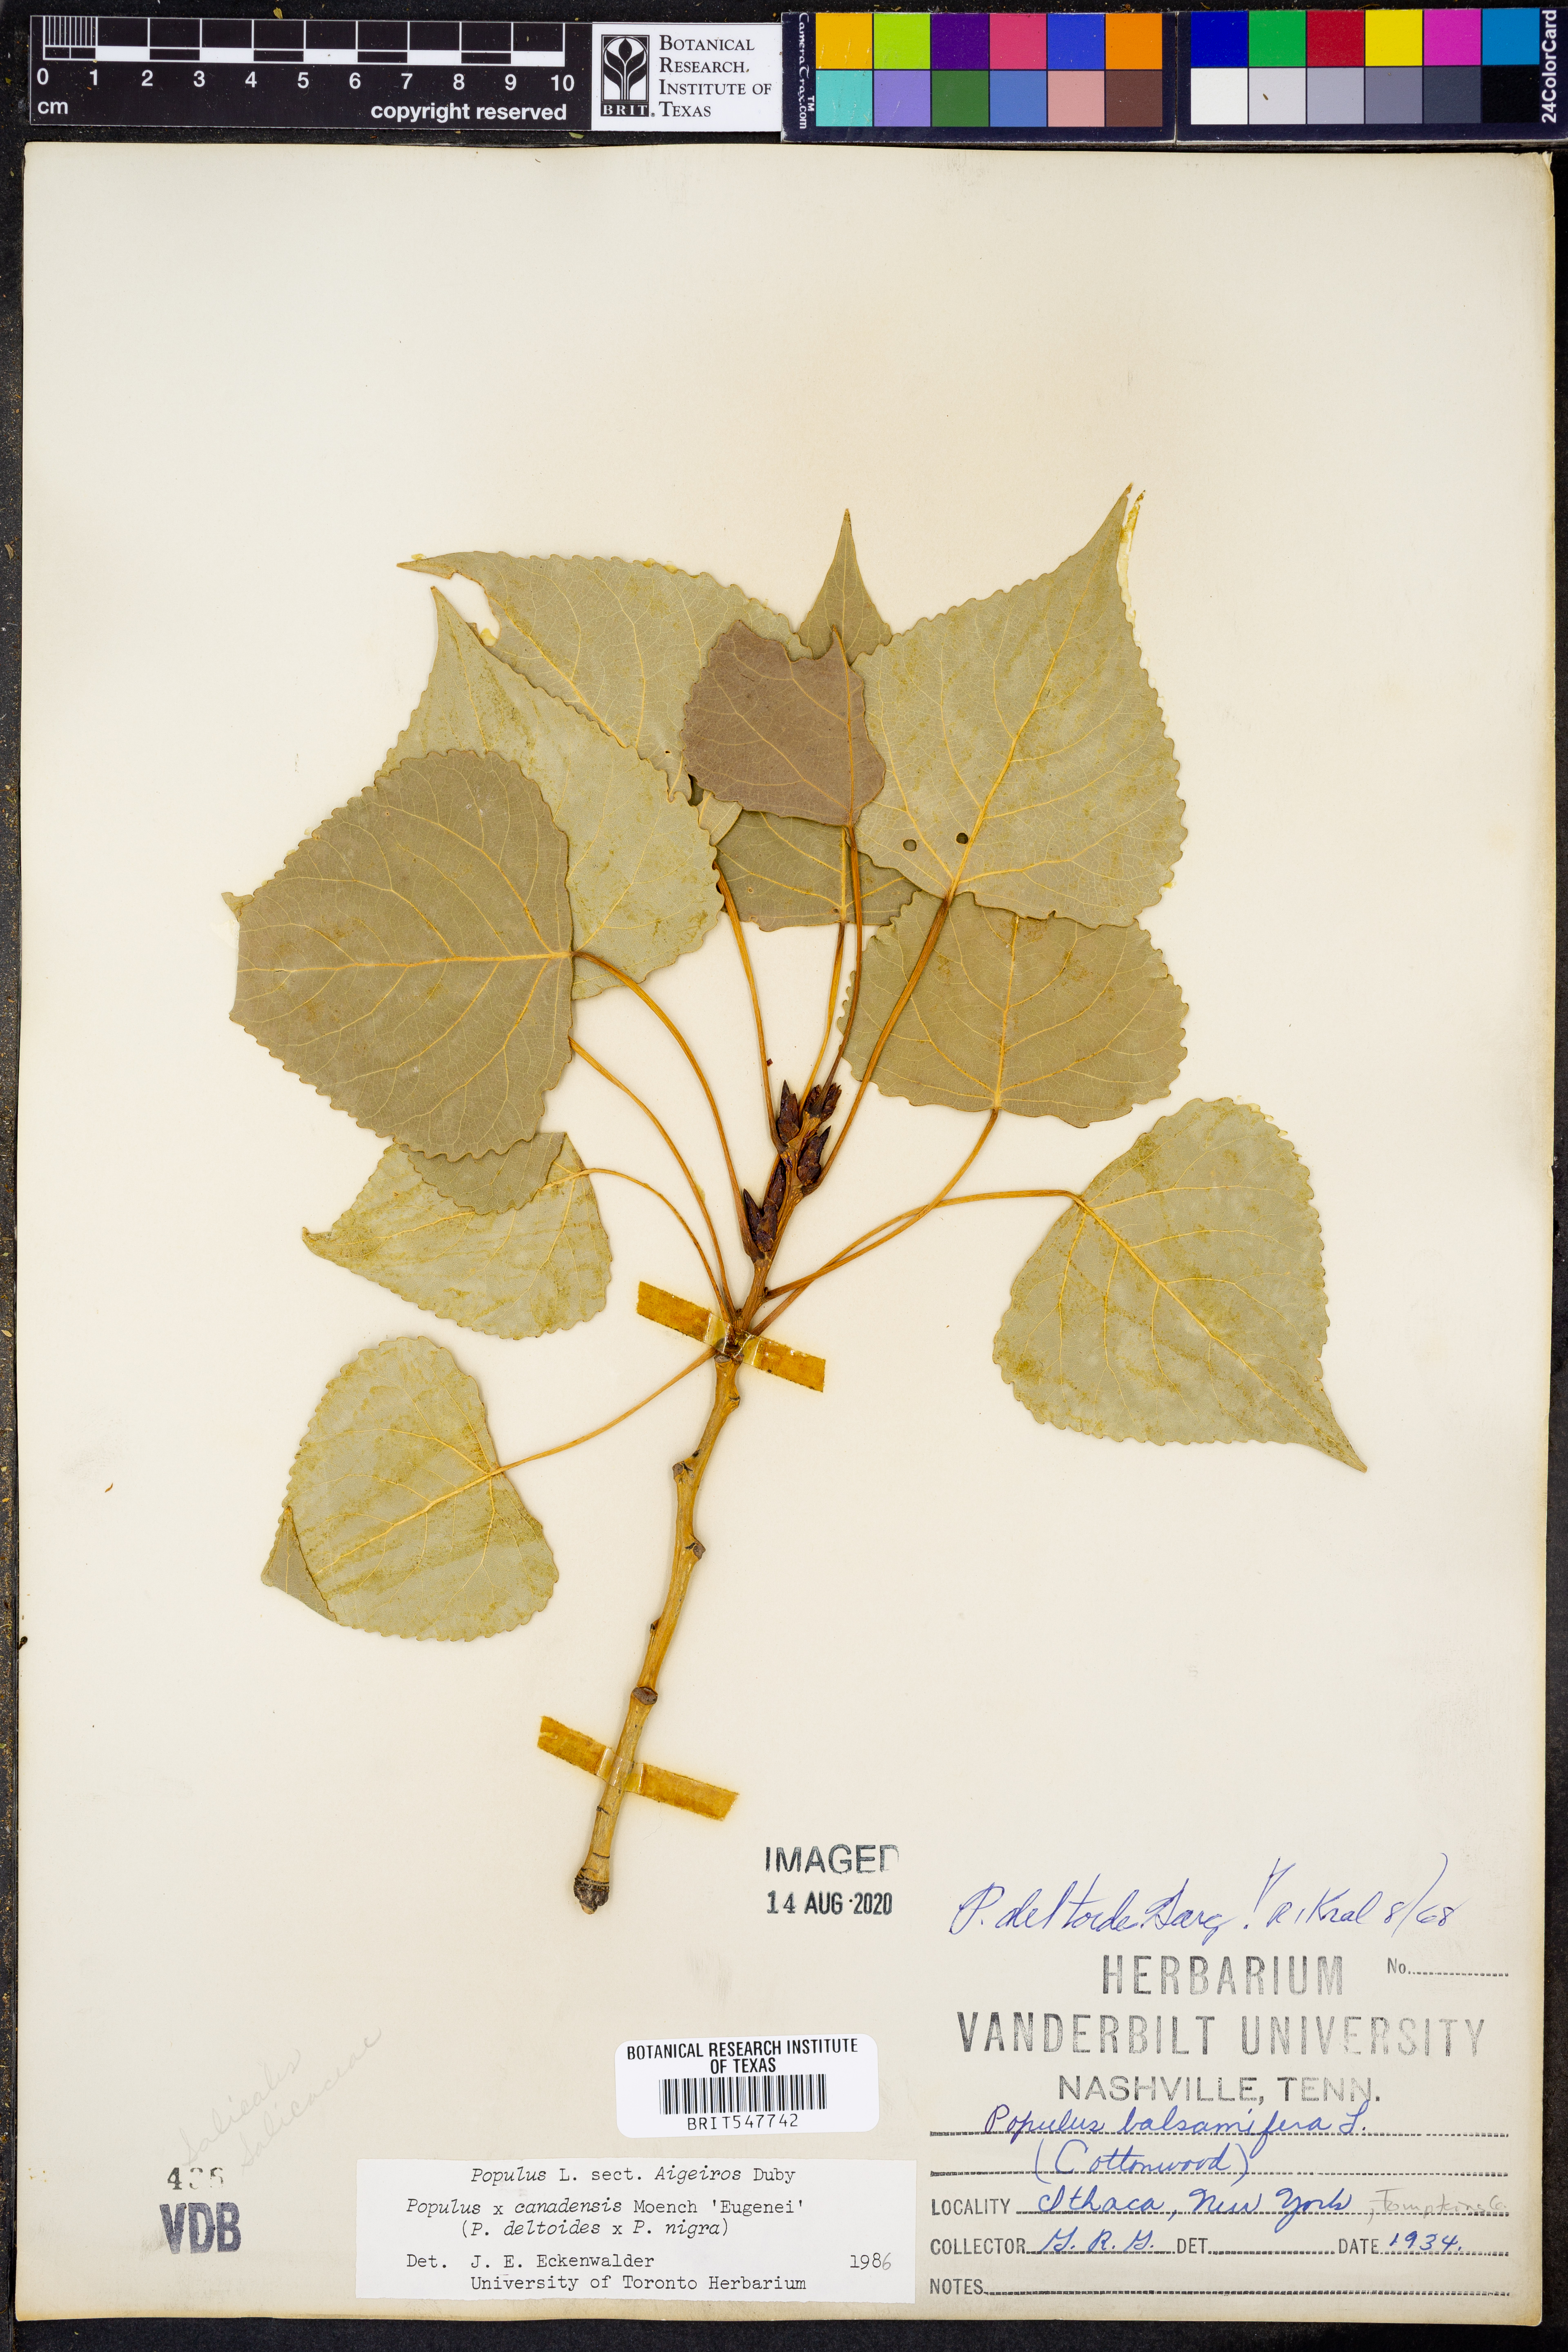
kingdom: Plantae
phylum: Tracheophyta
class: Magnoliopsida
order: Malpighiales
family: Salicaceae
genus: Populus
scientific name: Populus
